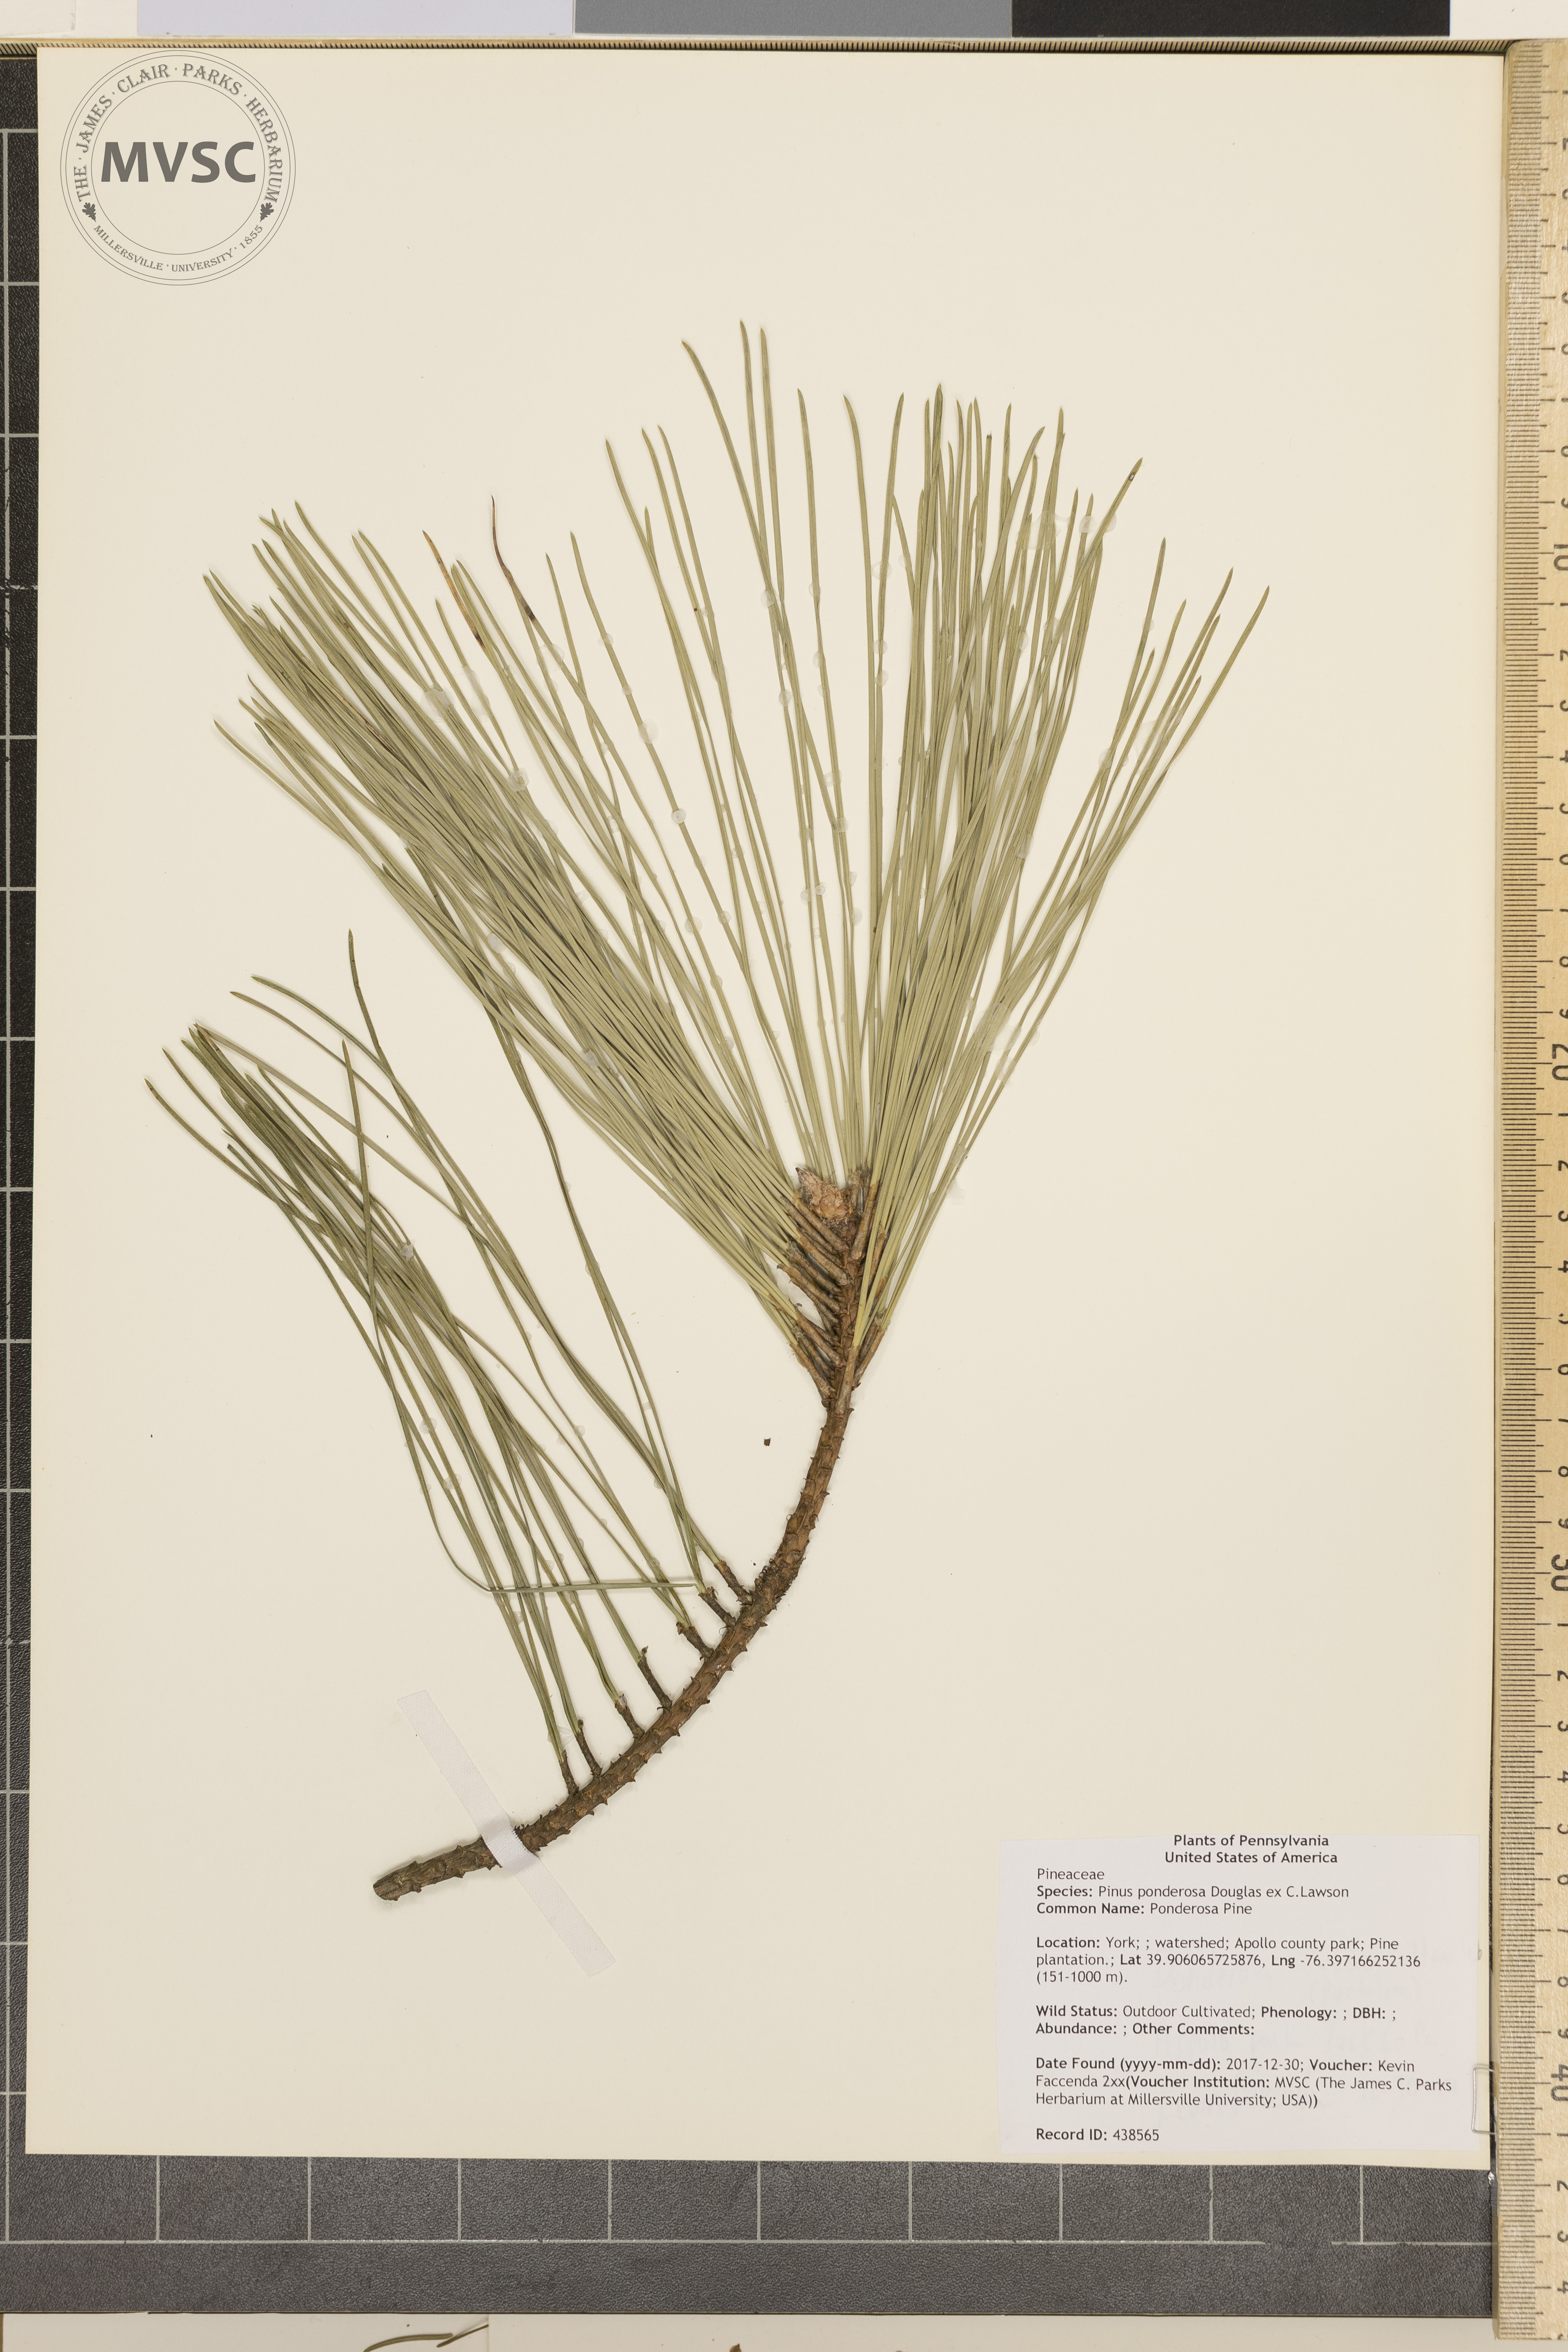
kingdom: Plantae
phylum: Tracheophyta
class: Pinopsida
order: Pinales
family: Pinaceae
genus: Pinus
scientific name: Pinus ponderosa
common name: Ponderosa Pine
